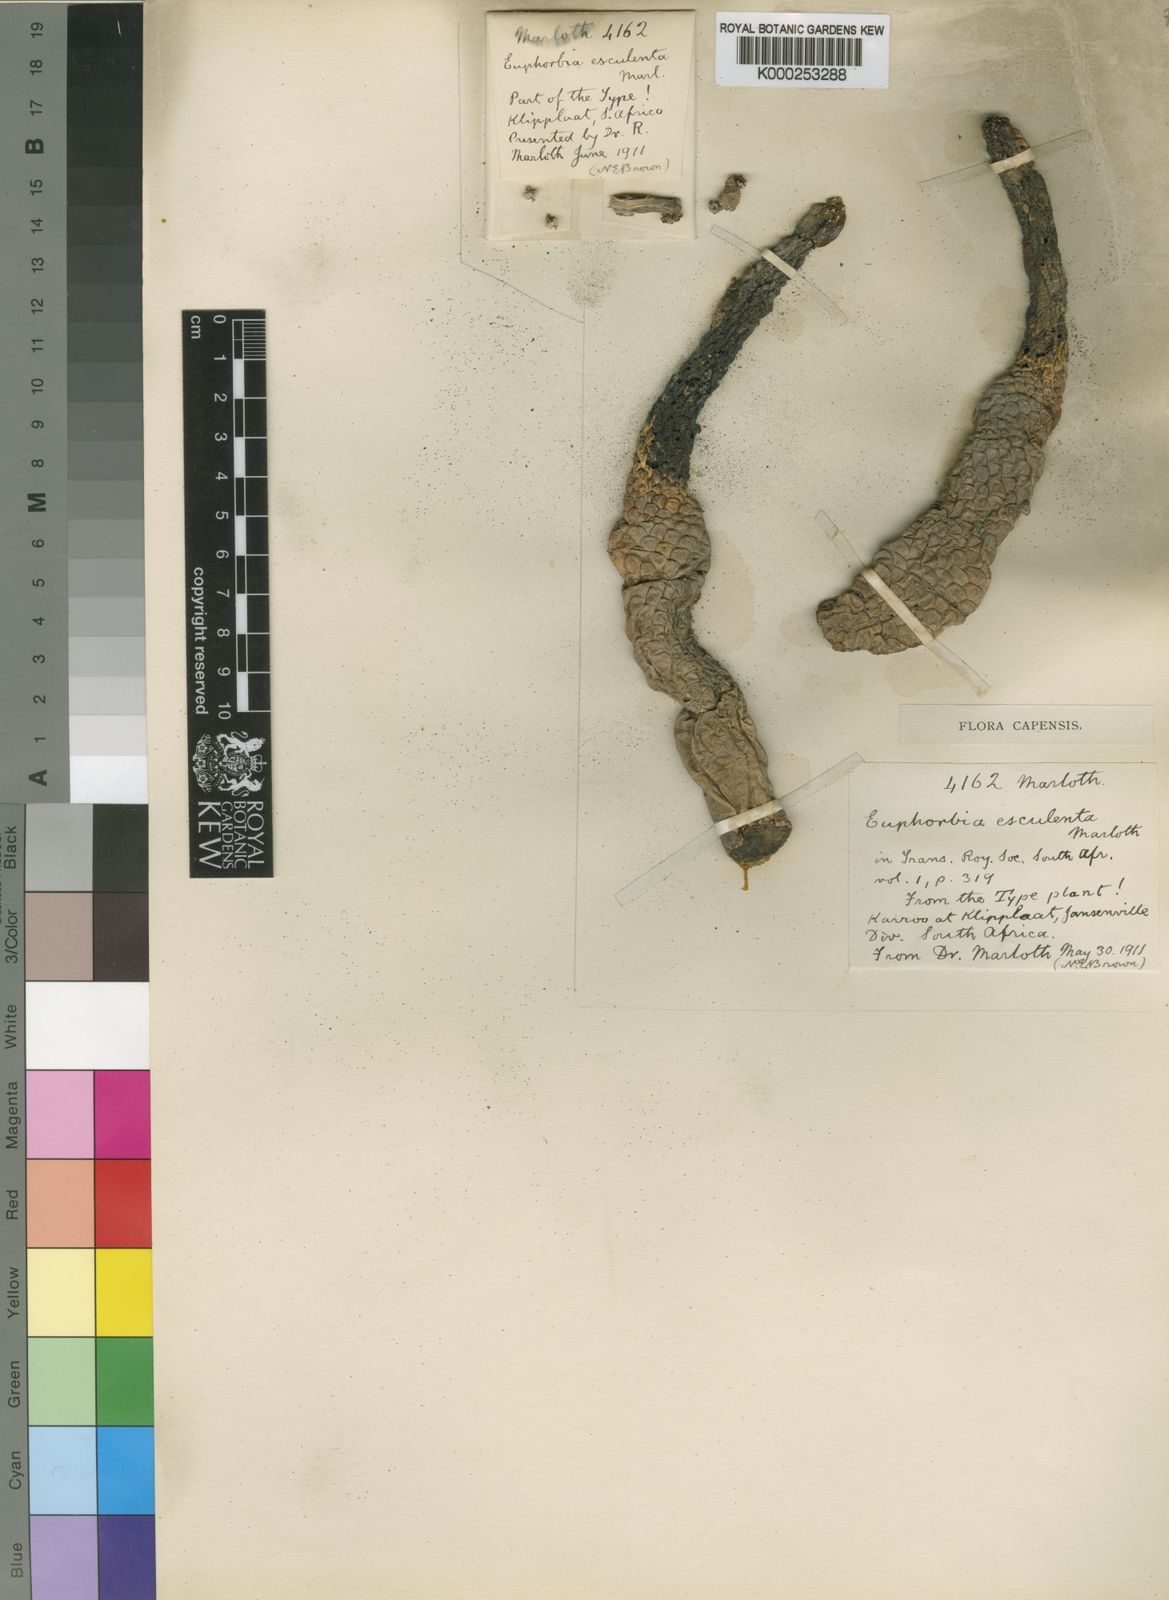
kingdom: Plantae
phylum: Tracheophyta
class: Magnoliopsida
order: Malpighiales
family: Euphorbiaceae
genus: Euphorbia
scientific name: Euphorbia esculenta
